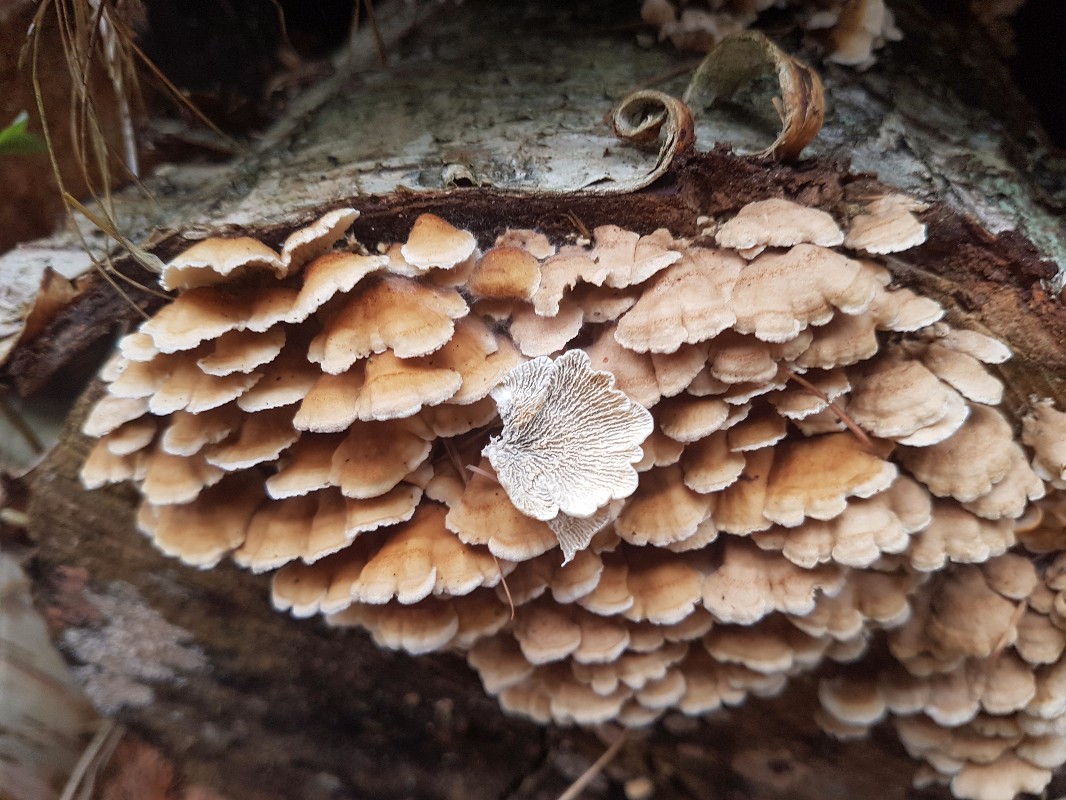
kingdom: Fungi
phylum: Basidiomycota
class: Agaricomycetes
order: Amylocorticiales
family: Amylocorticiaceae
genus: Plicaturopsis
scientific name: Plicaturopsis crispa
